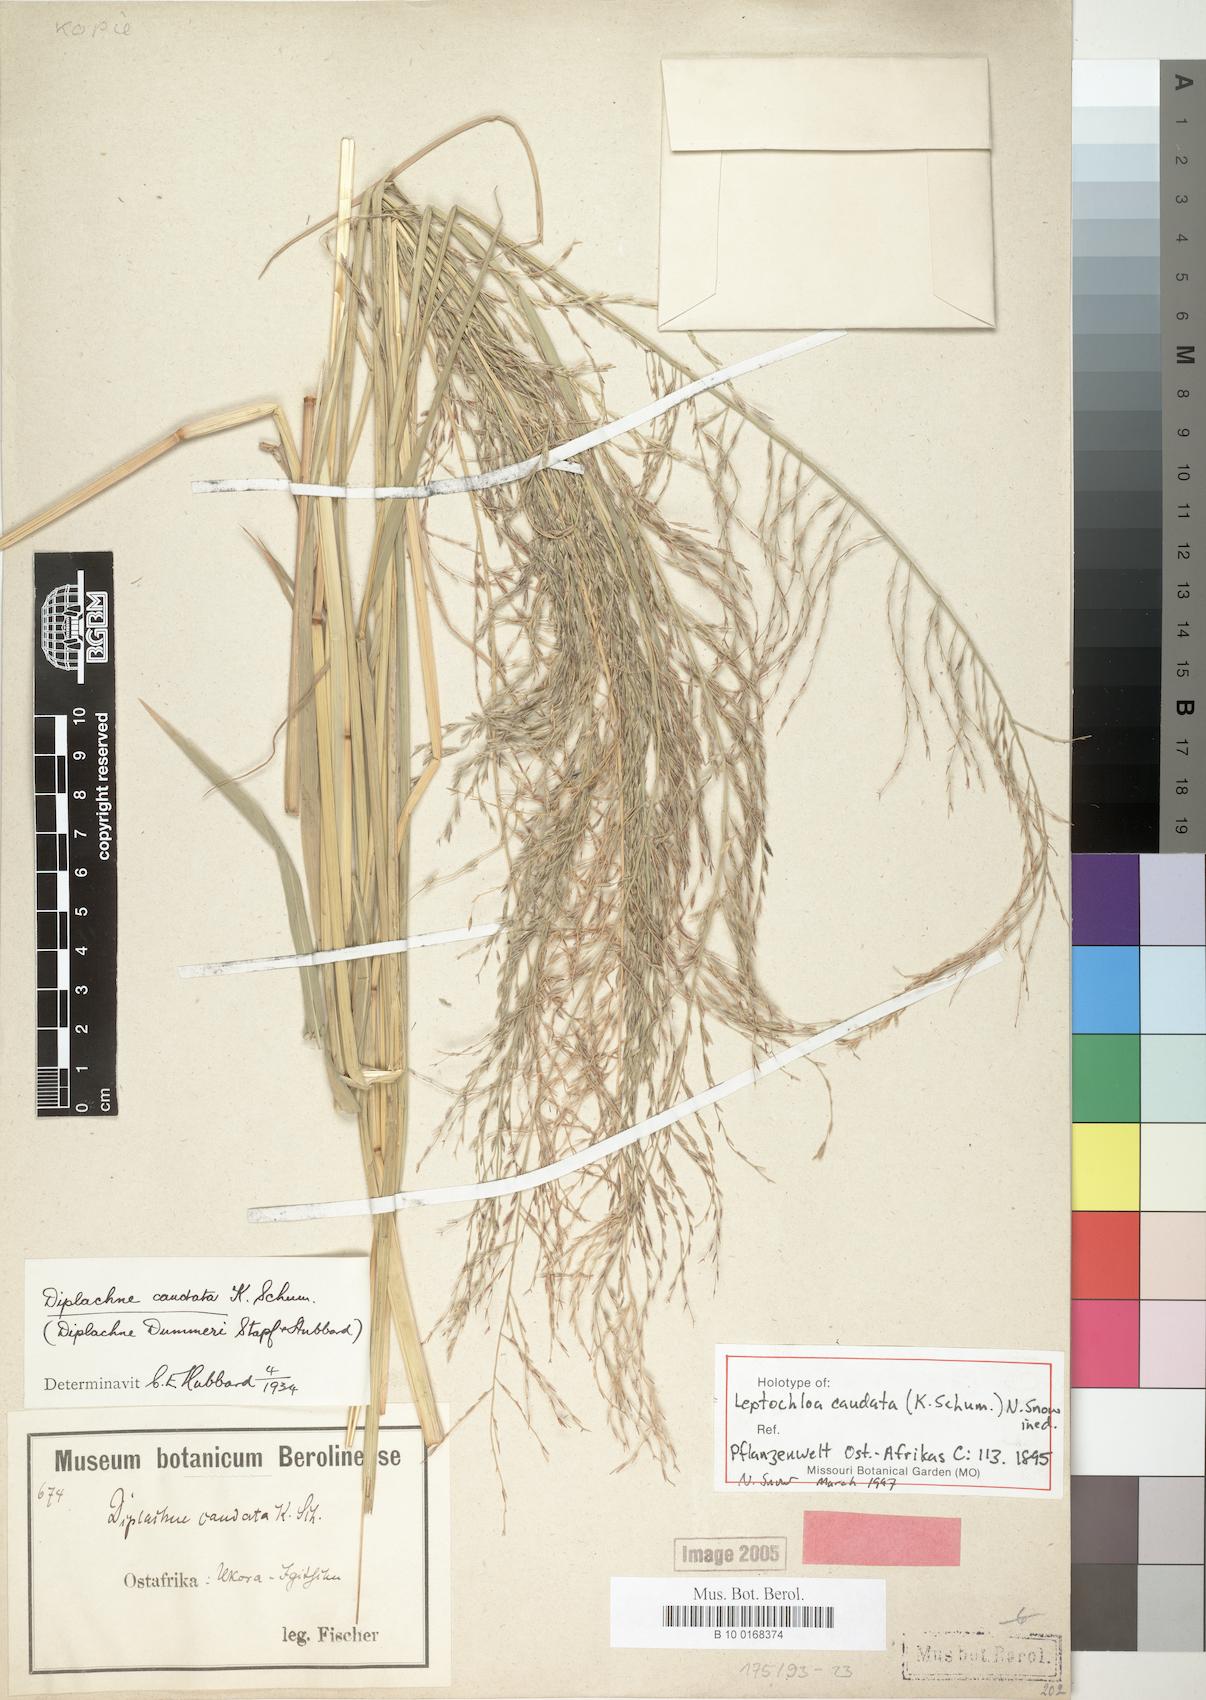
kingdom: Plantae
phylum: Tracheophyta
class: Liliopsida
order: Poales
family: Poaceae
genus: Leptochloa
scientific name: Leptochloa caudata
